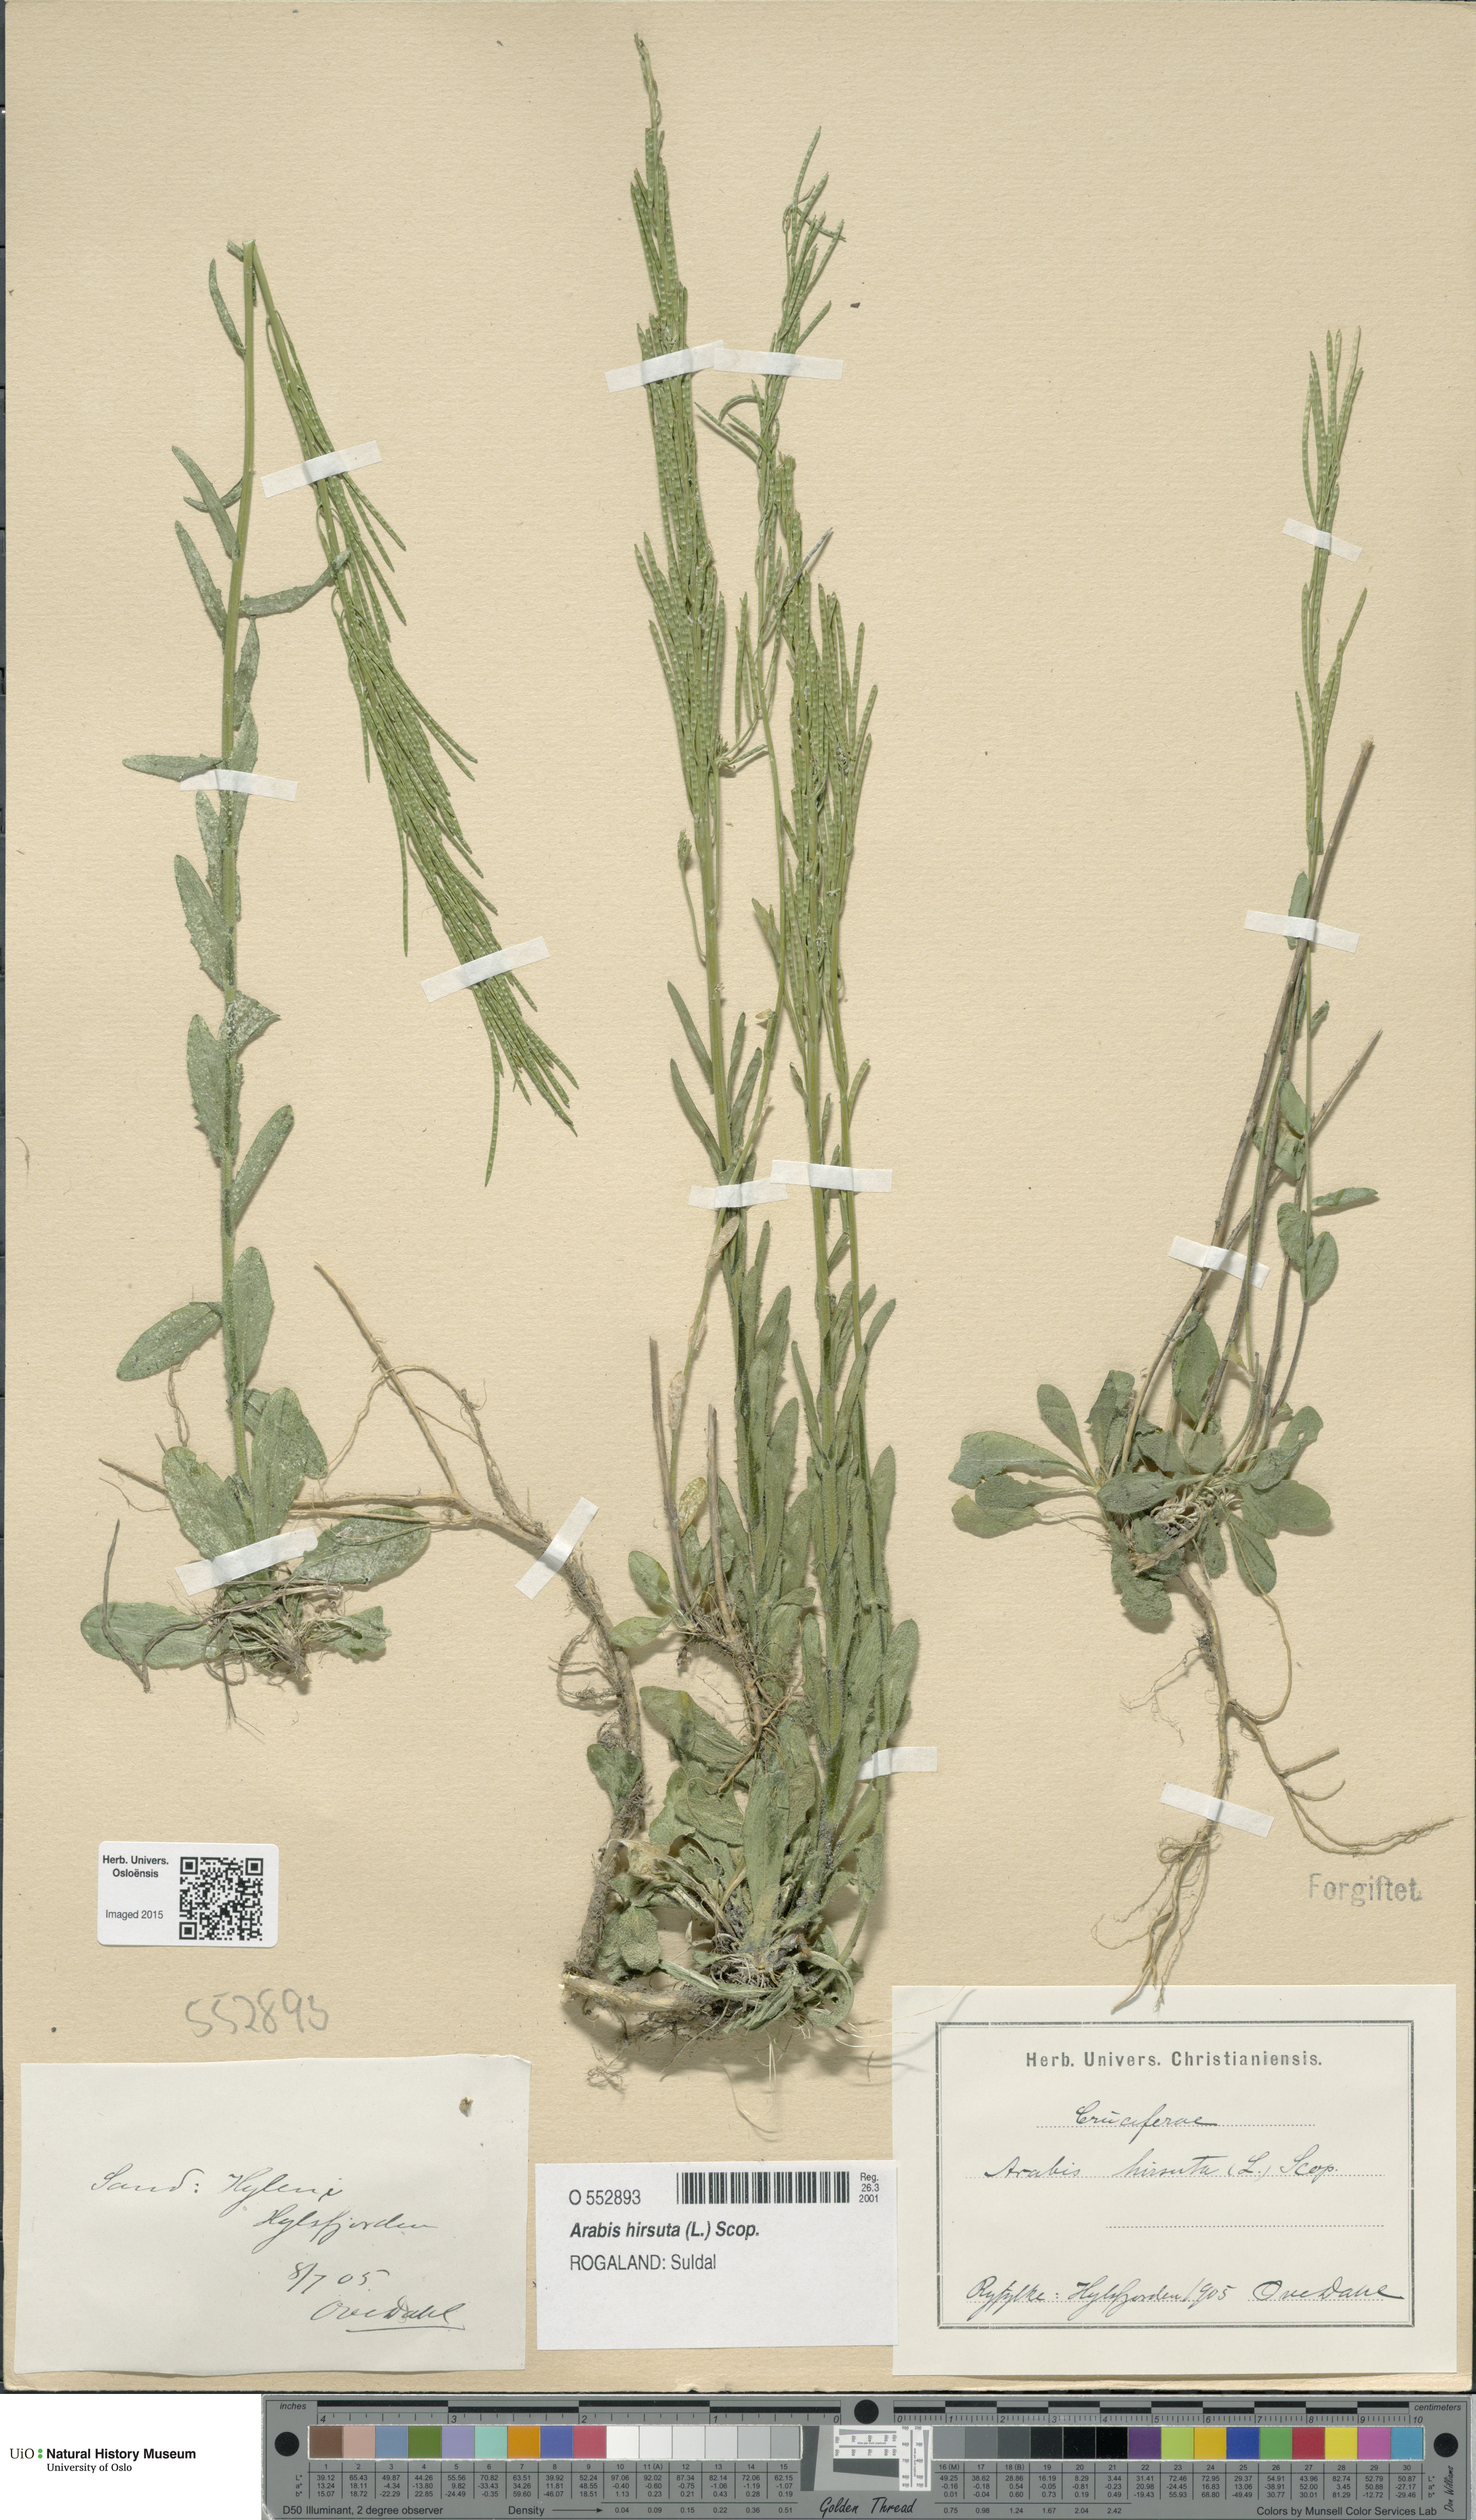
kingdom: Plantae
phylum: Tracheophyta
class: Magnoliopsida
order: Brassicales
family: Brassicaceae
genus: Arabis
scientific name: Arabis hirsuta
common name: Hairy rock-cress
